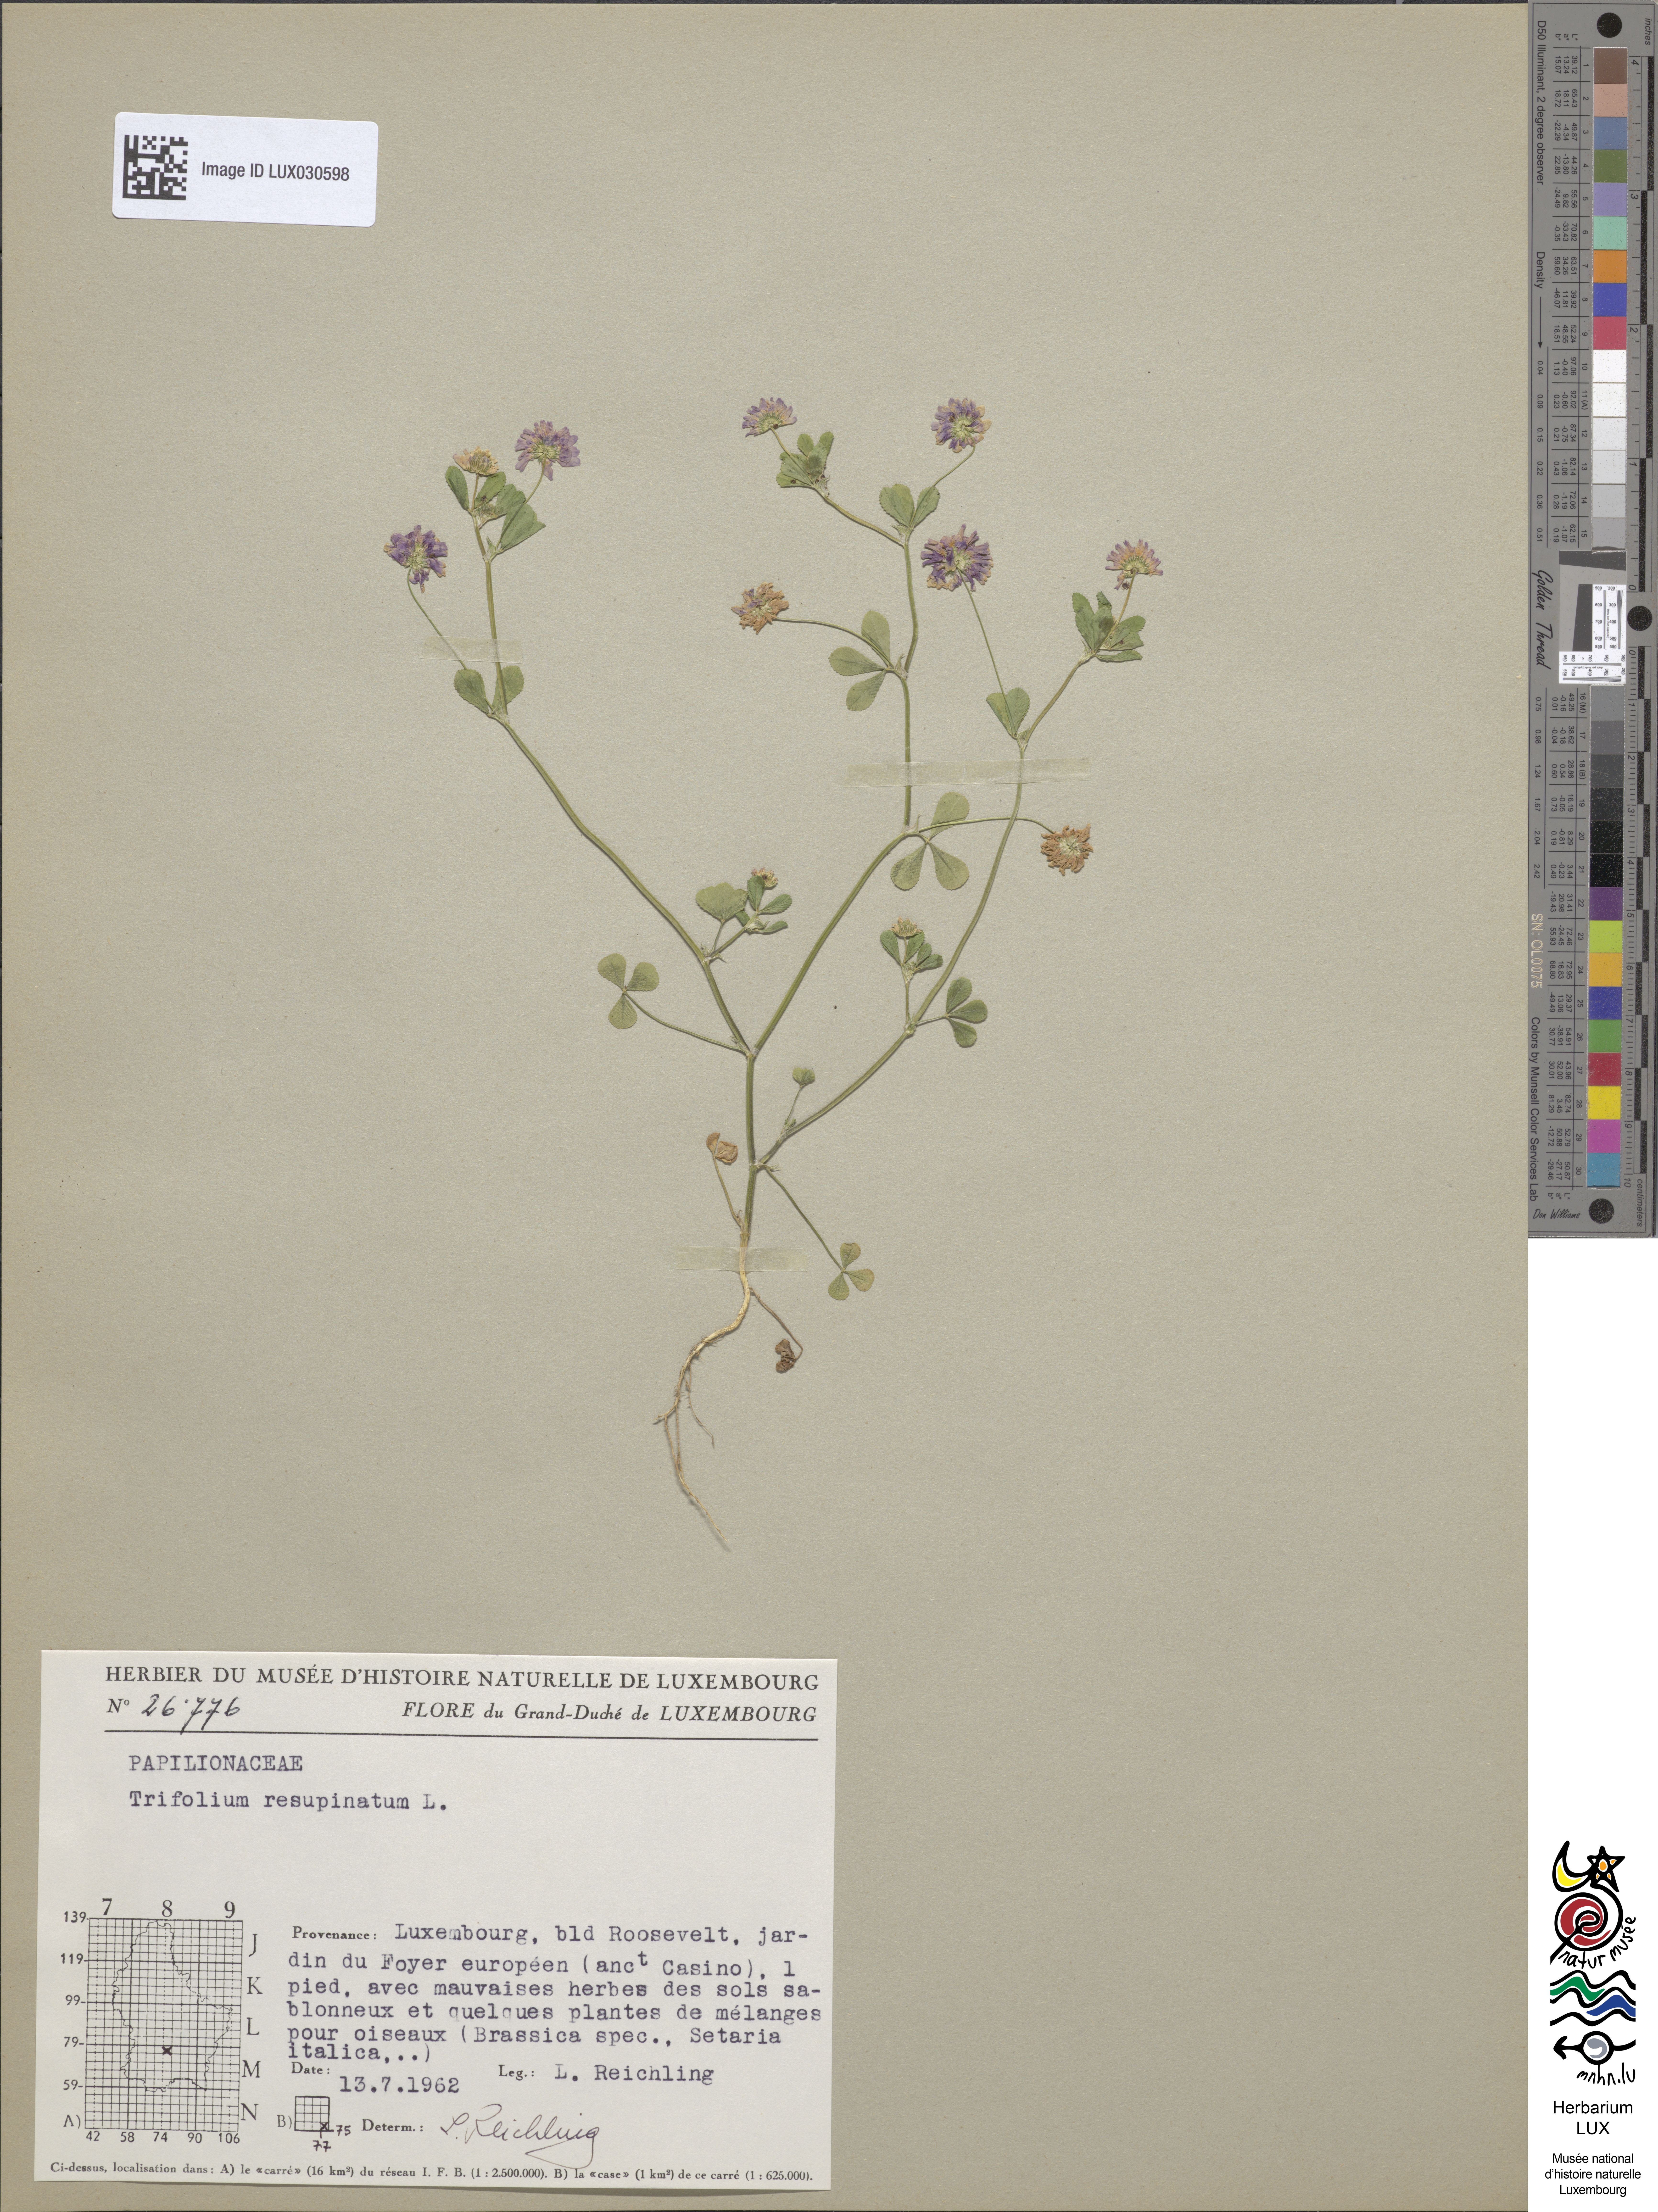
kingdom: Plantae
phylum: Tracheophyta
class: Magnoliopsida
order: Fabales
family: Fabaceae
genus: Trifolium
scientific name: Trifolium resupinatum
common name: Reversed clover
